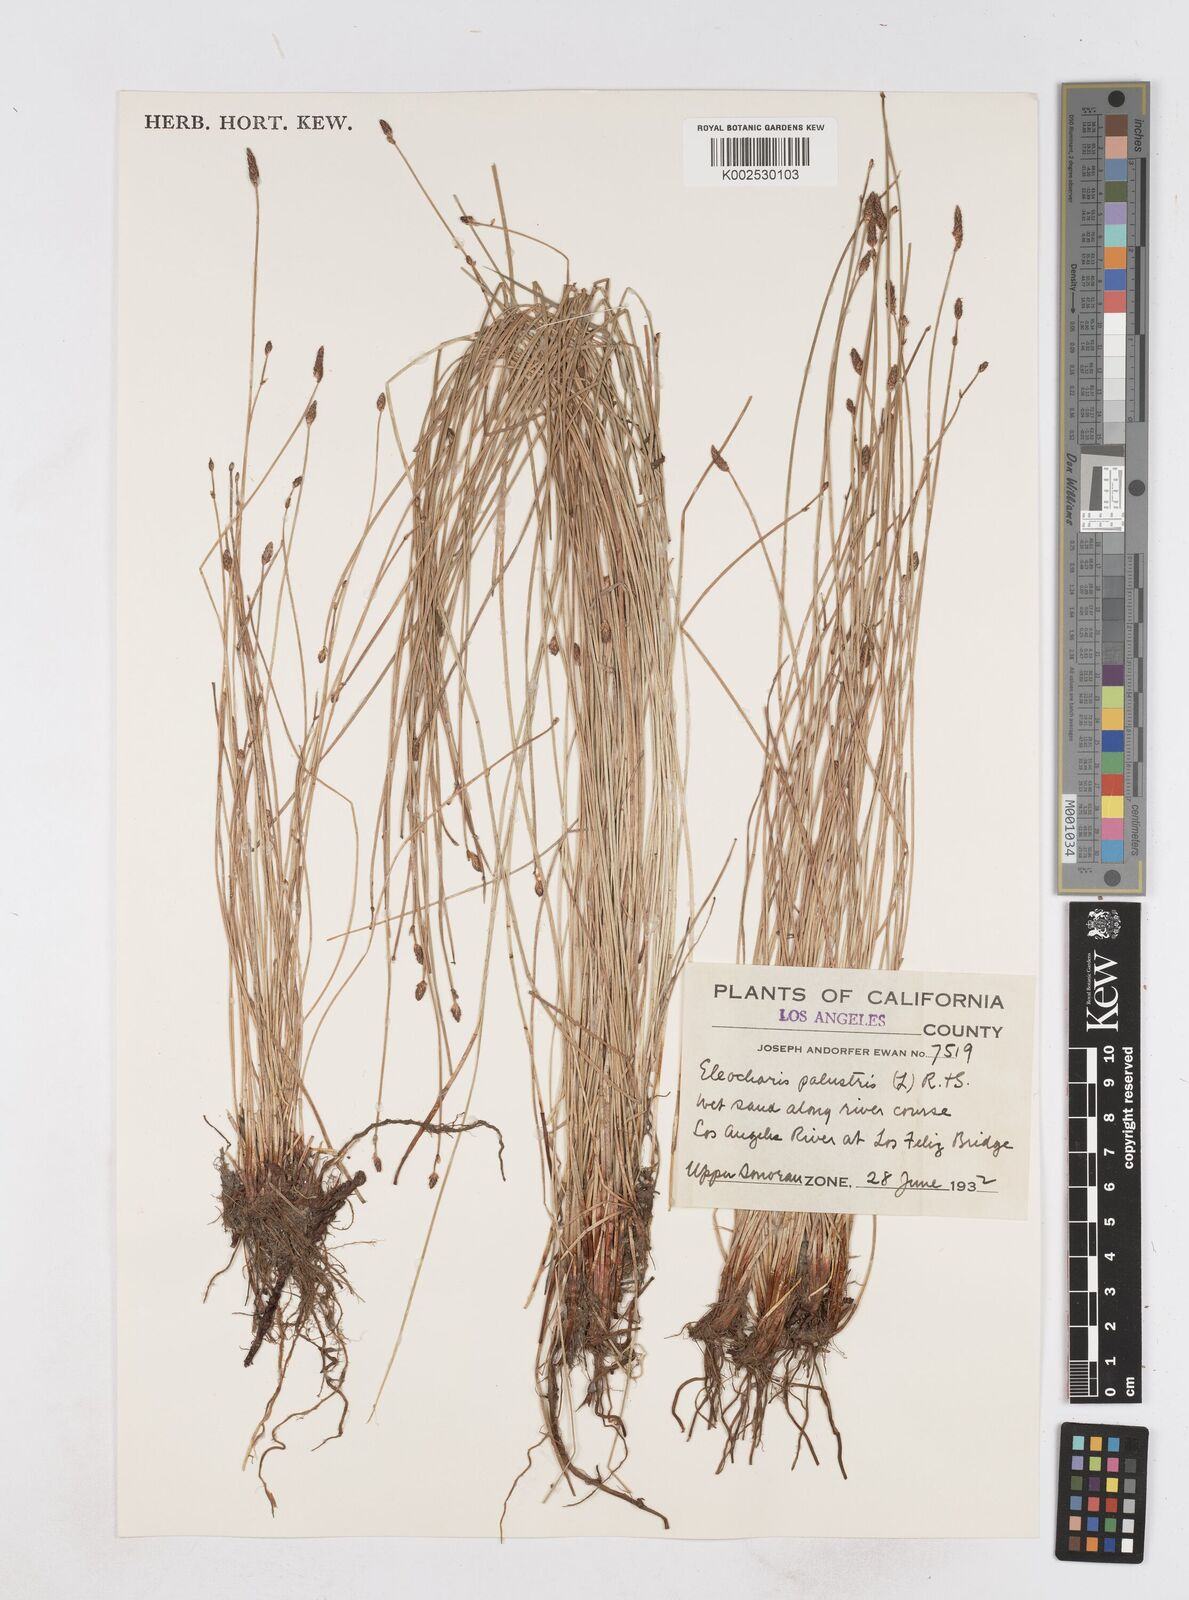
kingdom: Plantae
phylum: Tracheophyta
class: Liliopsida
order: Poales
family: Cyperaceae
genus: Eleocharis
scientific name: Eleocharis palustris
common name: Common spike-rush
